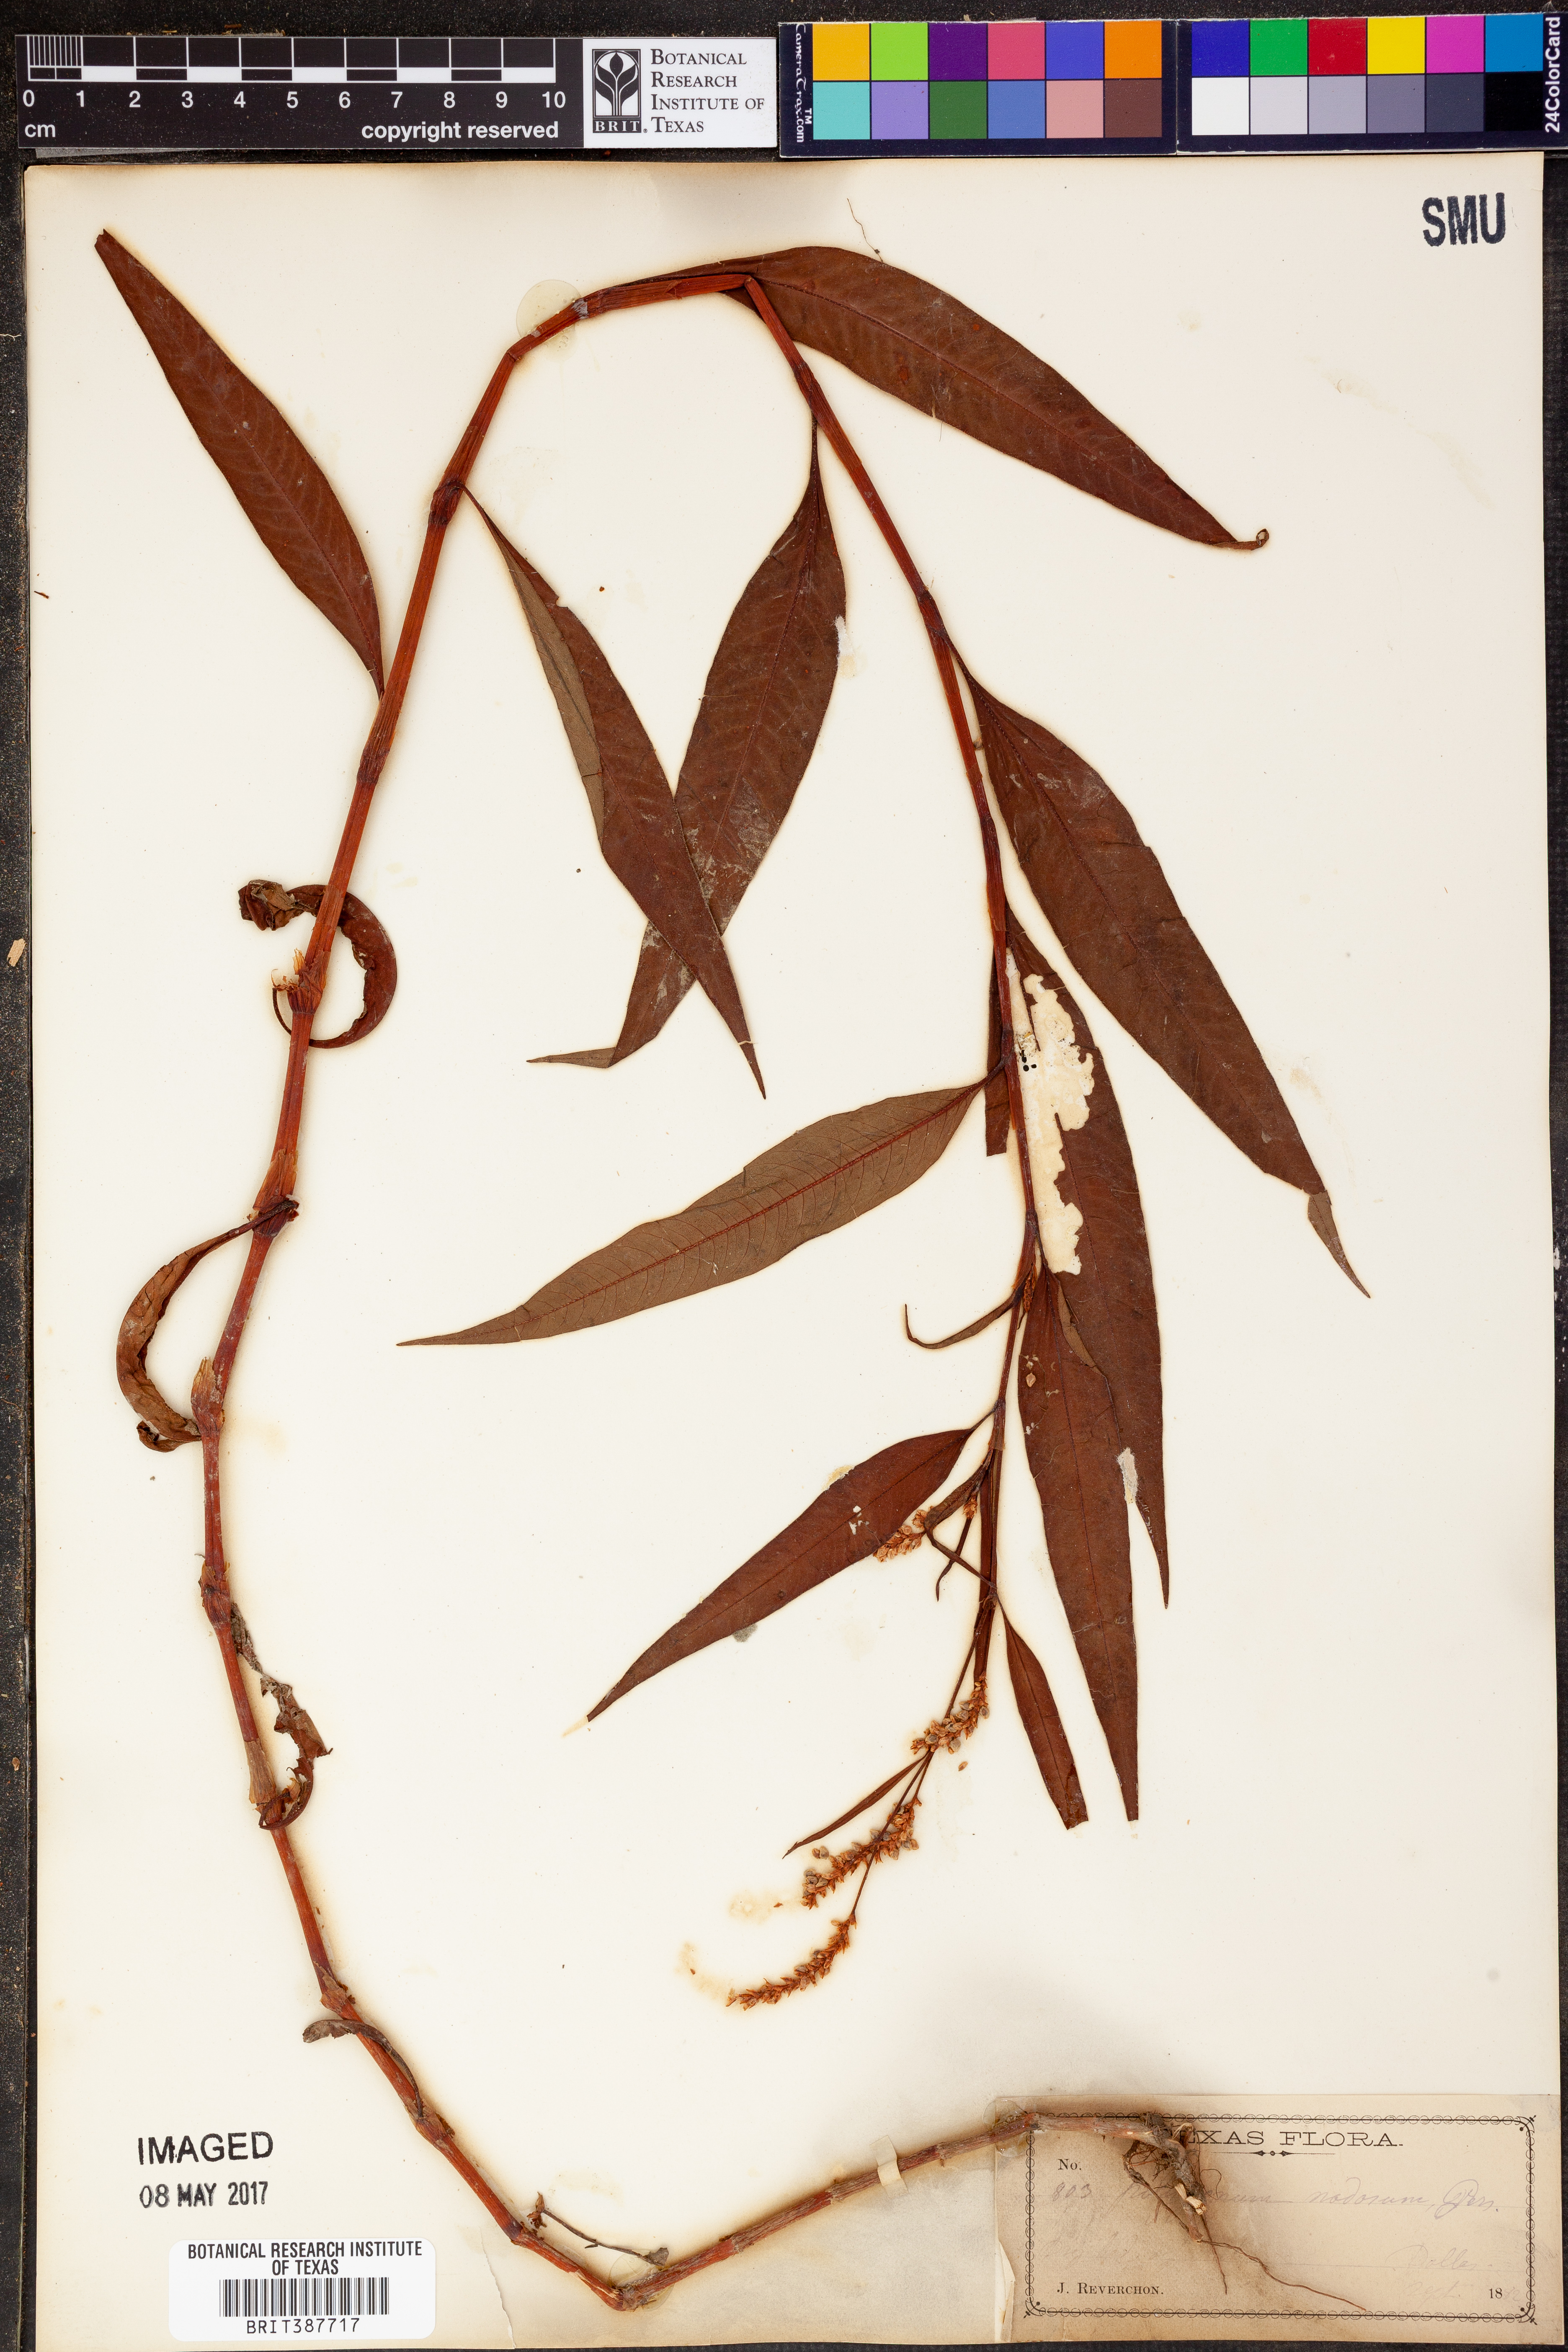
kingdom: Plantae
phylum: Tracheophyta
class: Magnoliopsida
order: Caryophyllales
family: Polygonaceae
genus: Persicaria
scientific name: Persicaria lapathifolia
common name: Curlytop knotweed
